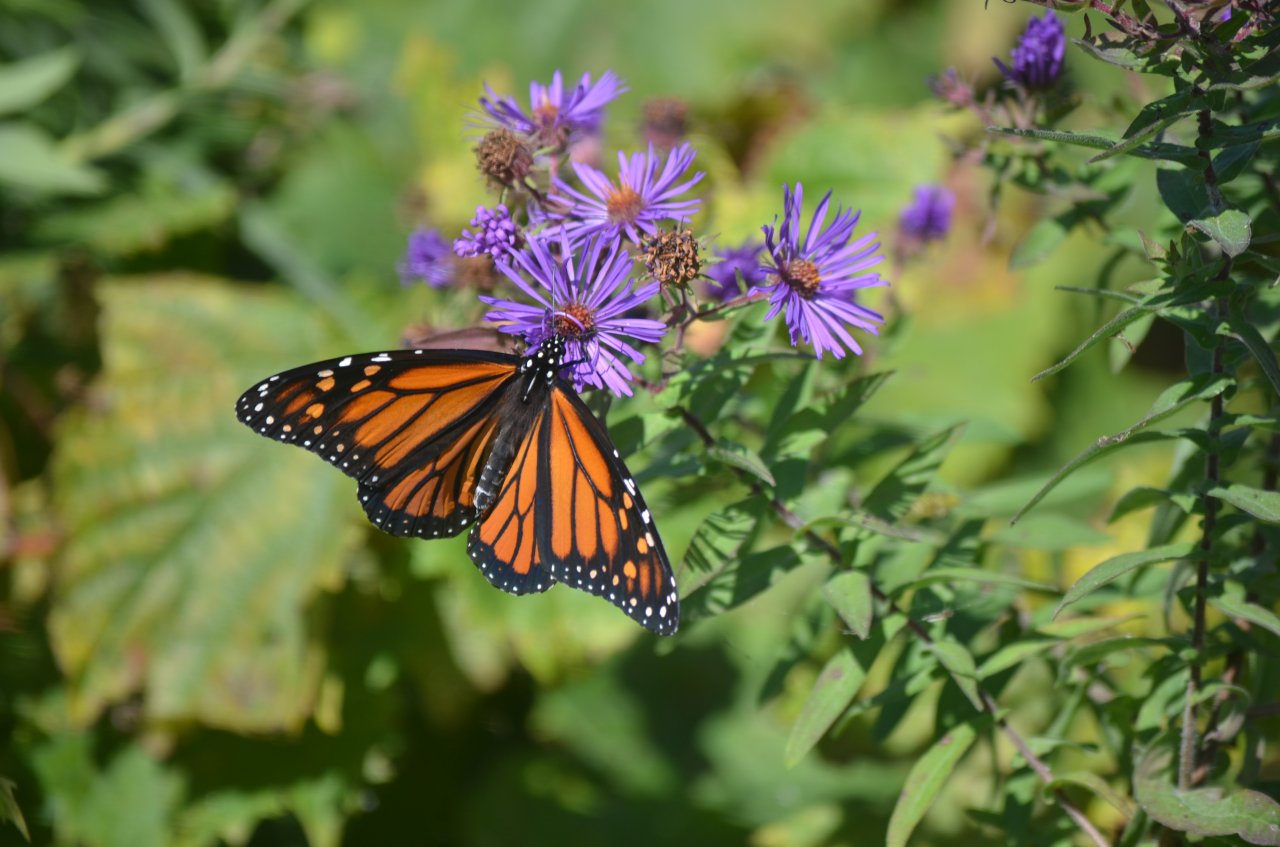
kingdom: Animalia
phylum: Arthropoda
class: Insecta
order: Lepidoptera
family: Nymphalidae
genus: Danaus
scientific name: Danaus plexippus
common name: Monarch
